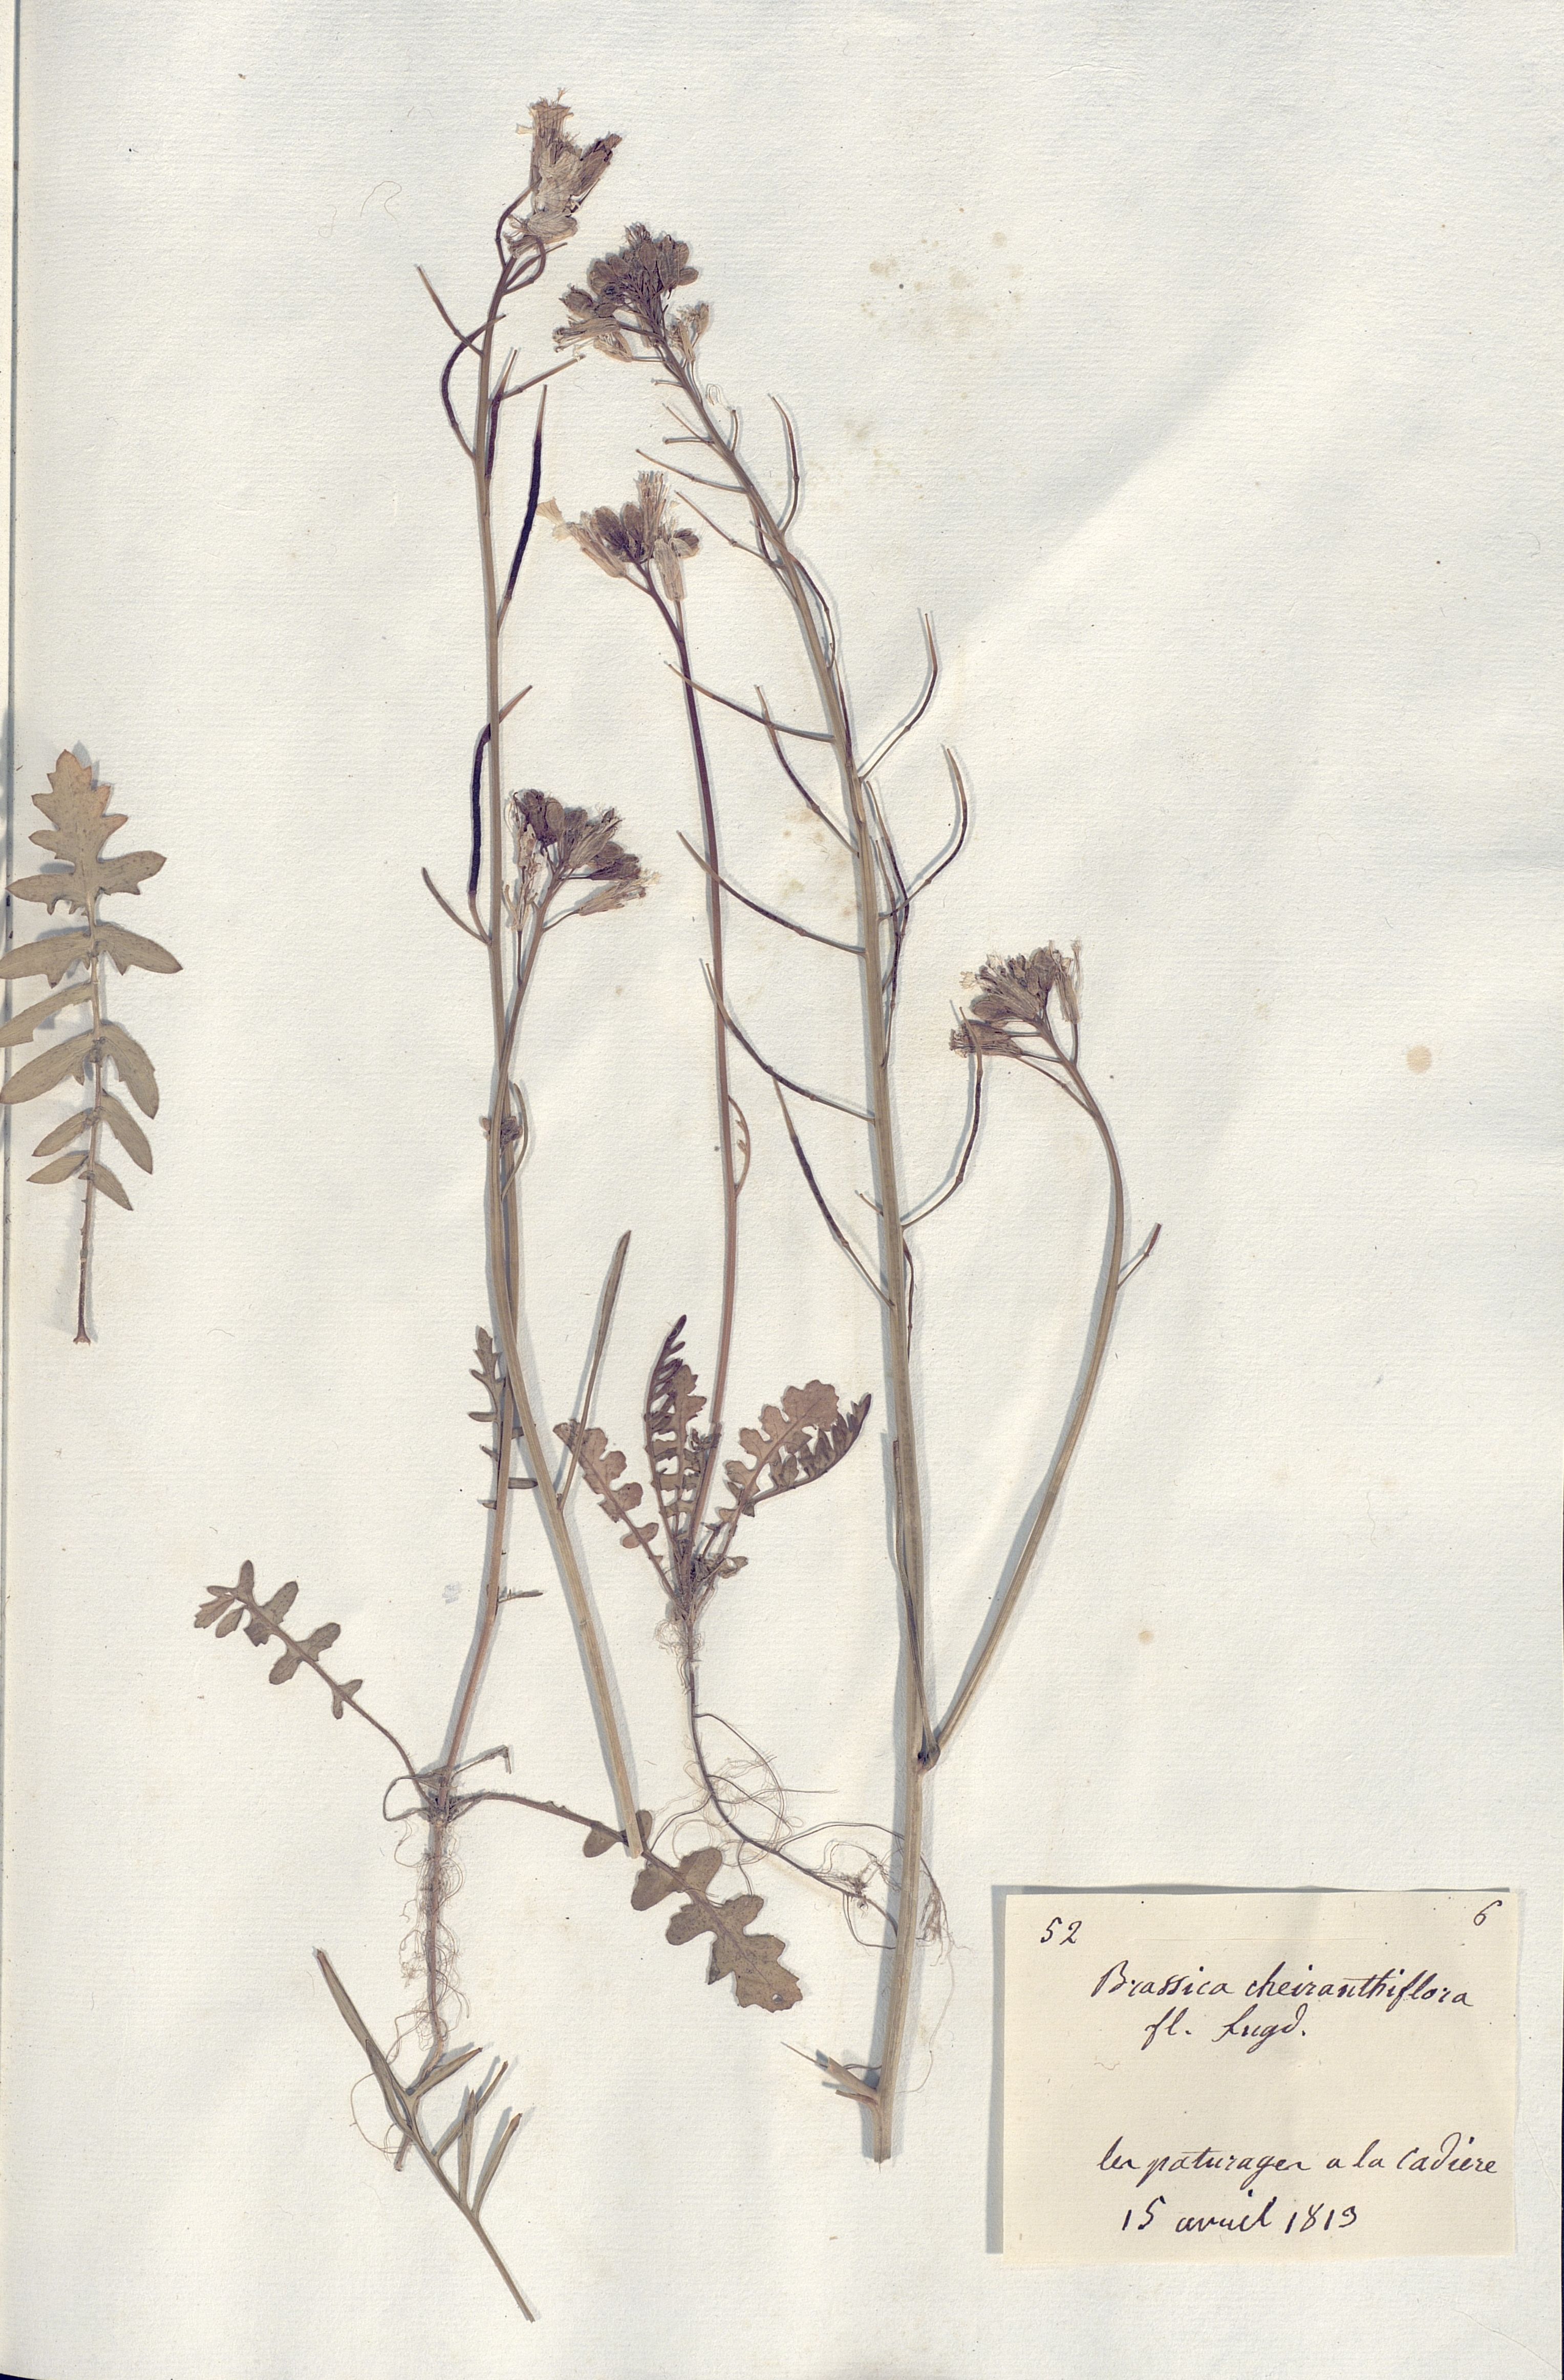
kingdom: Plantae
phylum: Tracheophyta
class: Magnoliopsida
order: Brassicales
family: Brassicaceae
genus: Coincya
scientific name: Coincya monensis
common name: Star-mustard
